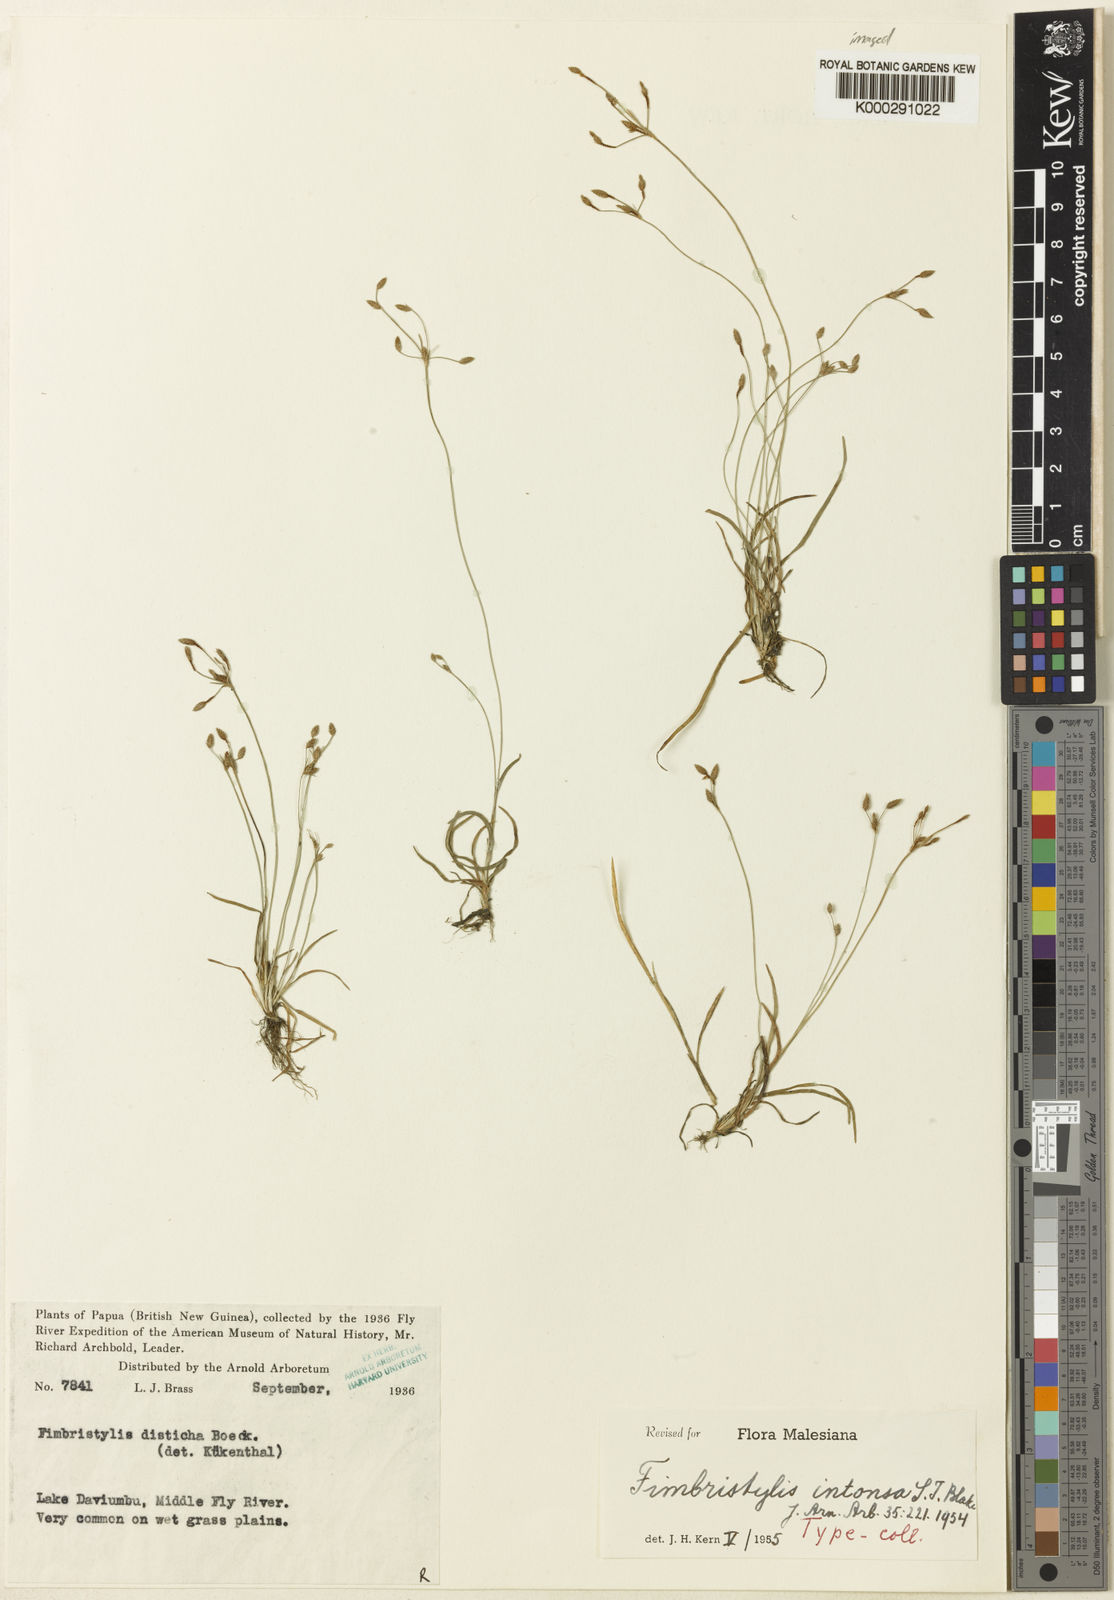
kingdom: Plantae
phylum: Tracheophyta
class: Liliopsida
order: Poales
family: Cyperaceae
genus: Fimbristylis
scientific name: Fimbristylis intonsa
